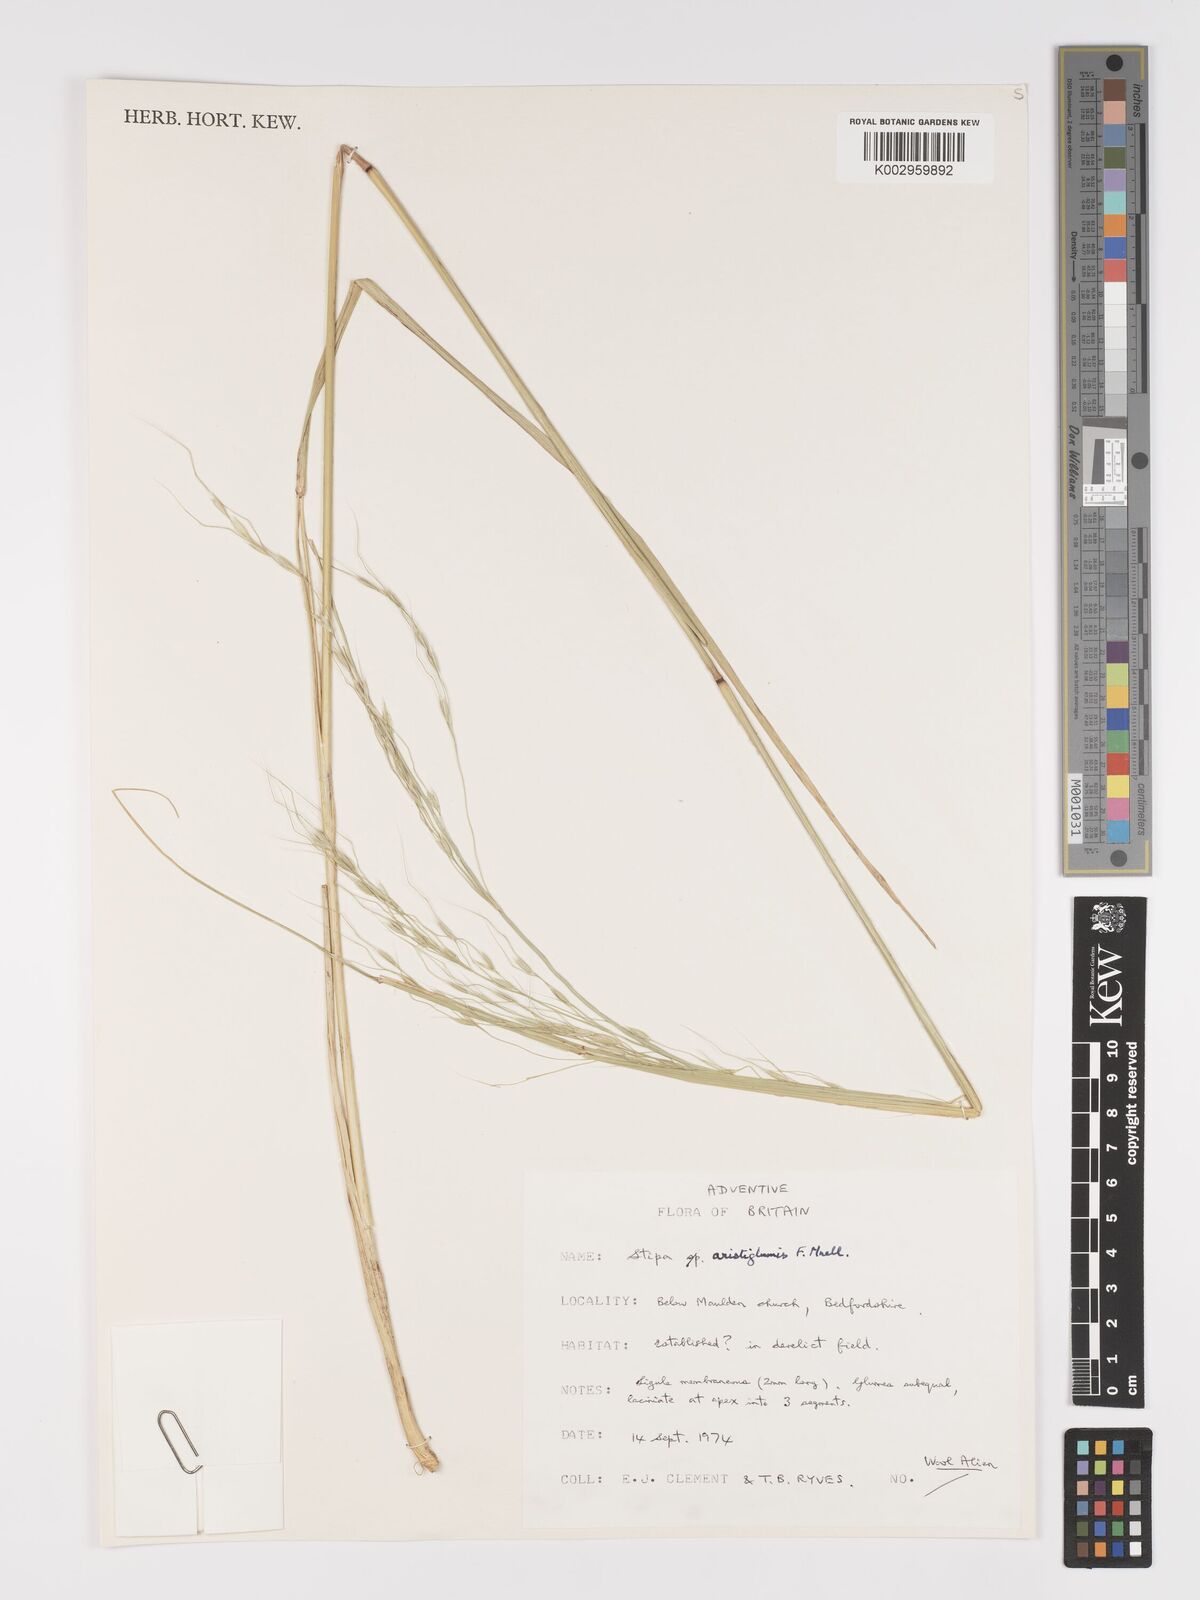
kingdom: Plantae
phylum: Tracheophyta
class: Liliopsida
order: Poales
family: Poaceae
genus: Austrostipa
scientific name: Austrostipa aristiglumis
